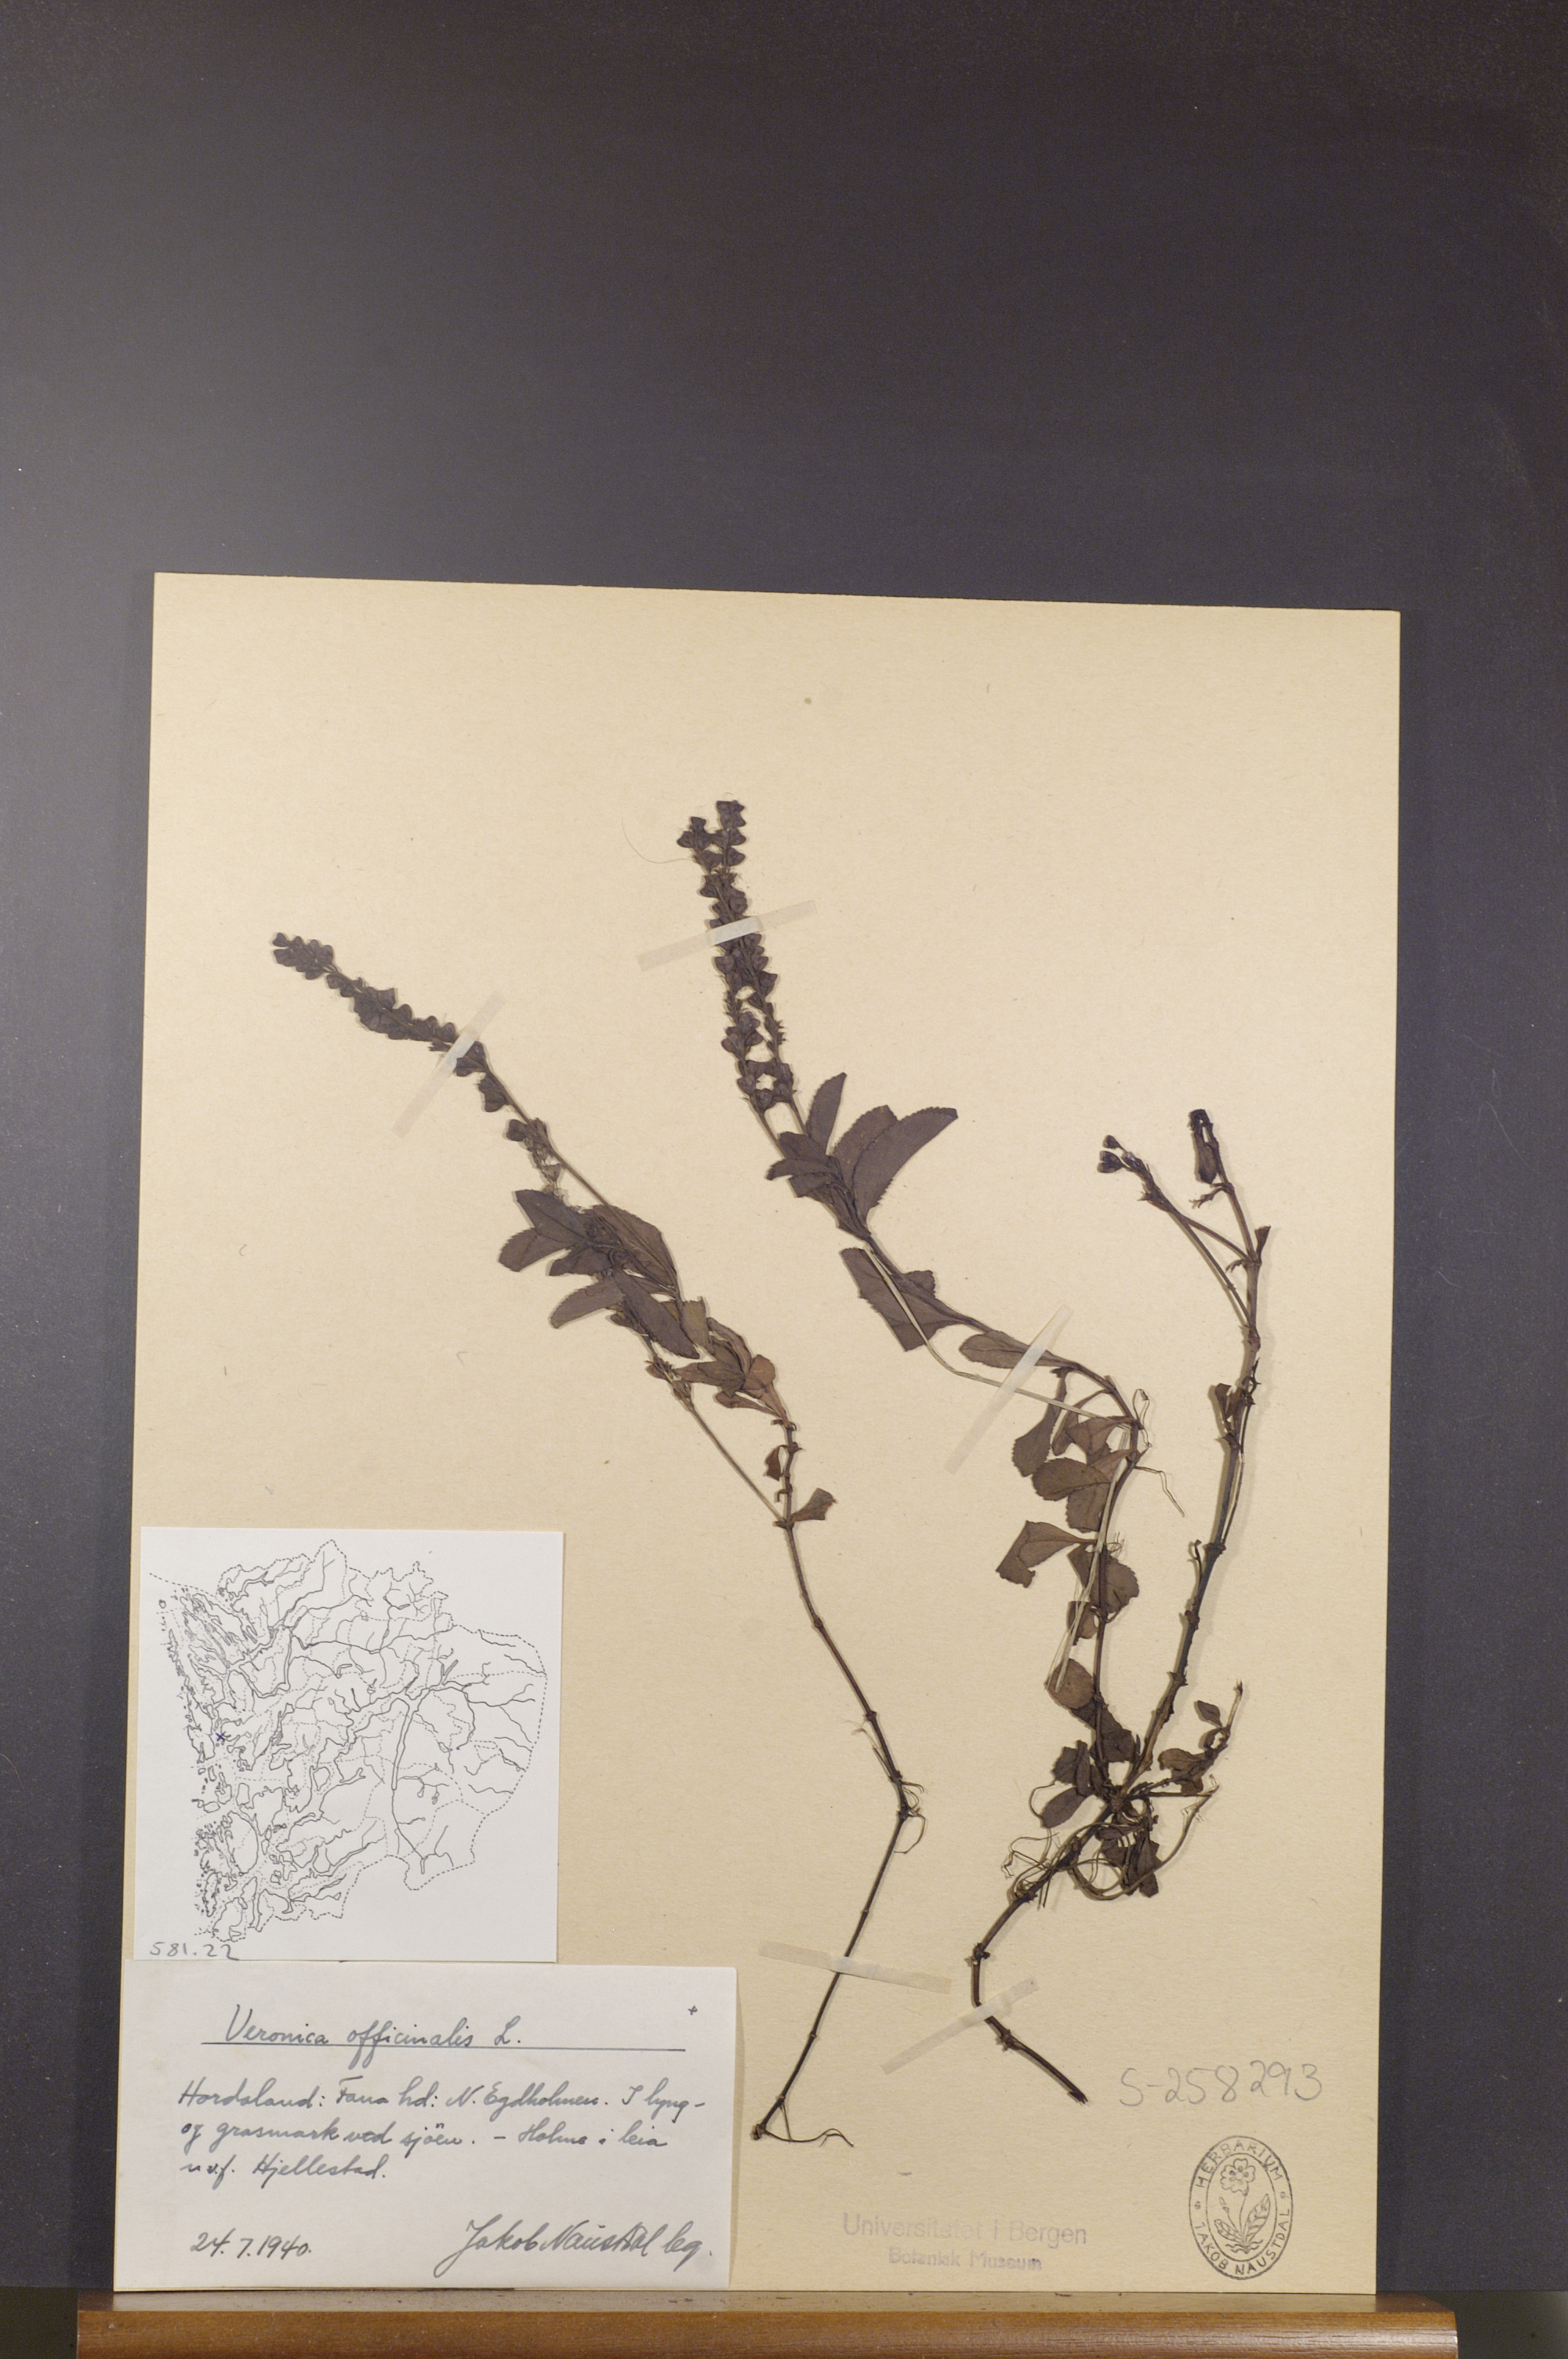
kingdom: Plantae
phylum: Tracheophyta
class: Magnoliopsida
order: Lamiales
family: Plantaginaceae
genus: Veronica
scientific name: Veronica officinalis
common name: Common speedwell
